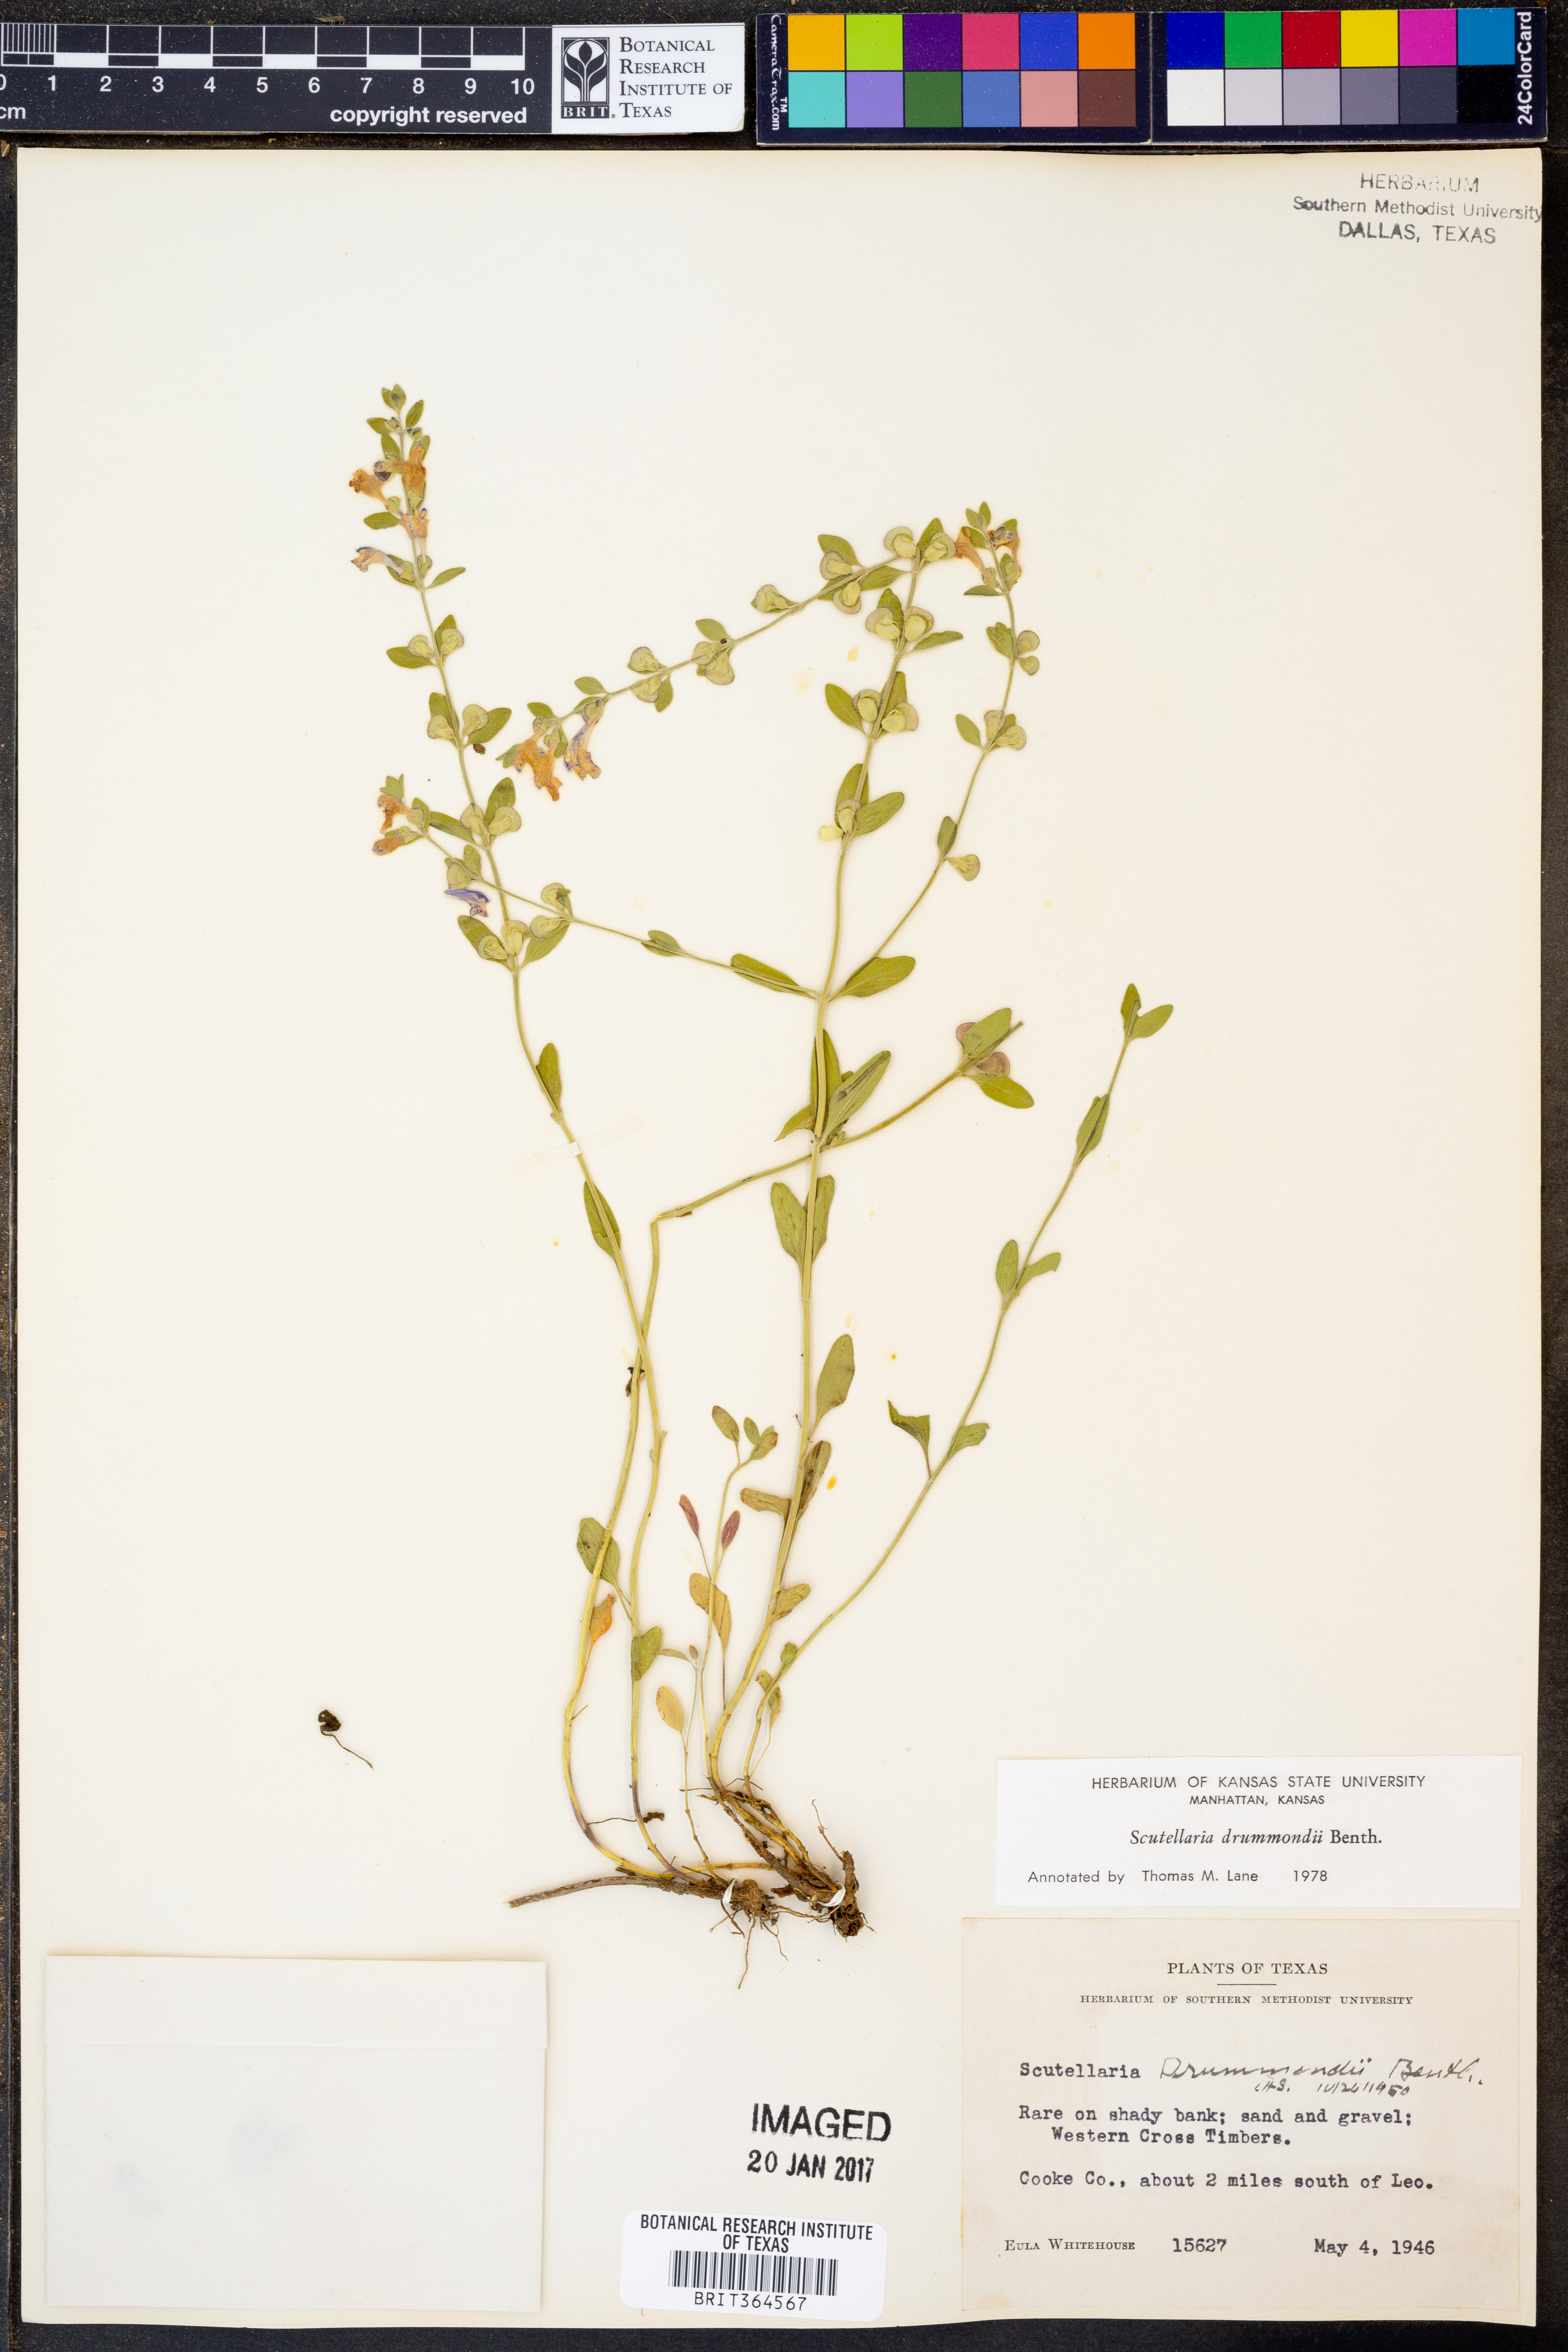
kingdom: Plantae
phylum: Tracheophyta
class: Magnoliopsida
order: Lamiales
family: Lamiaceae
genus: Scutellaria
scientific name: Scutellaria drummondii
